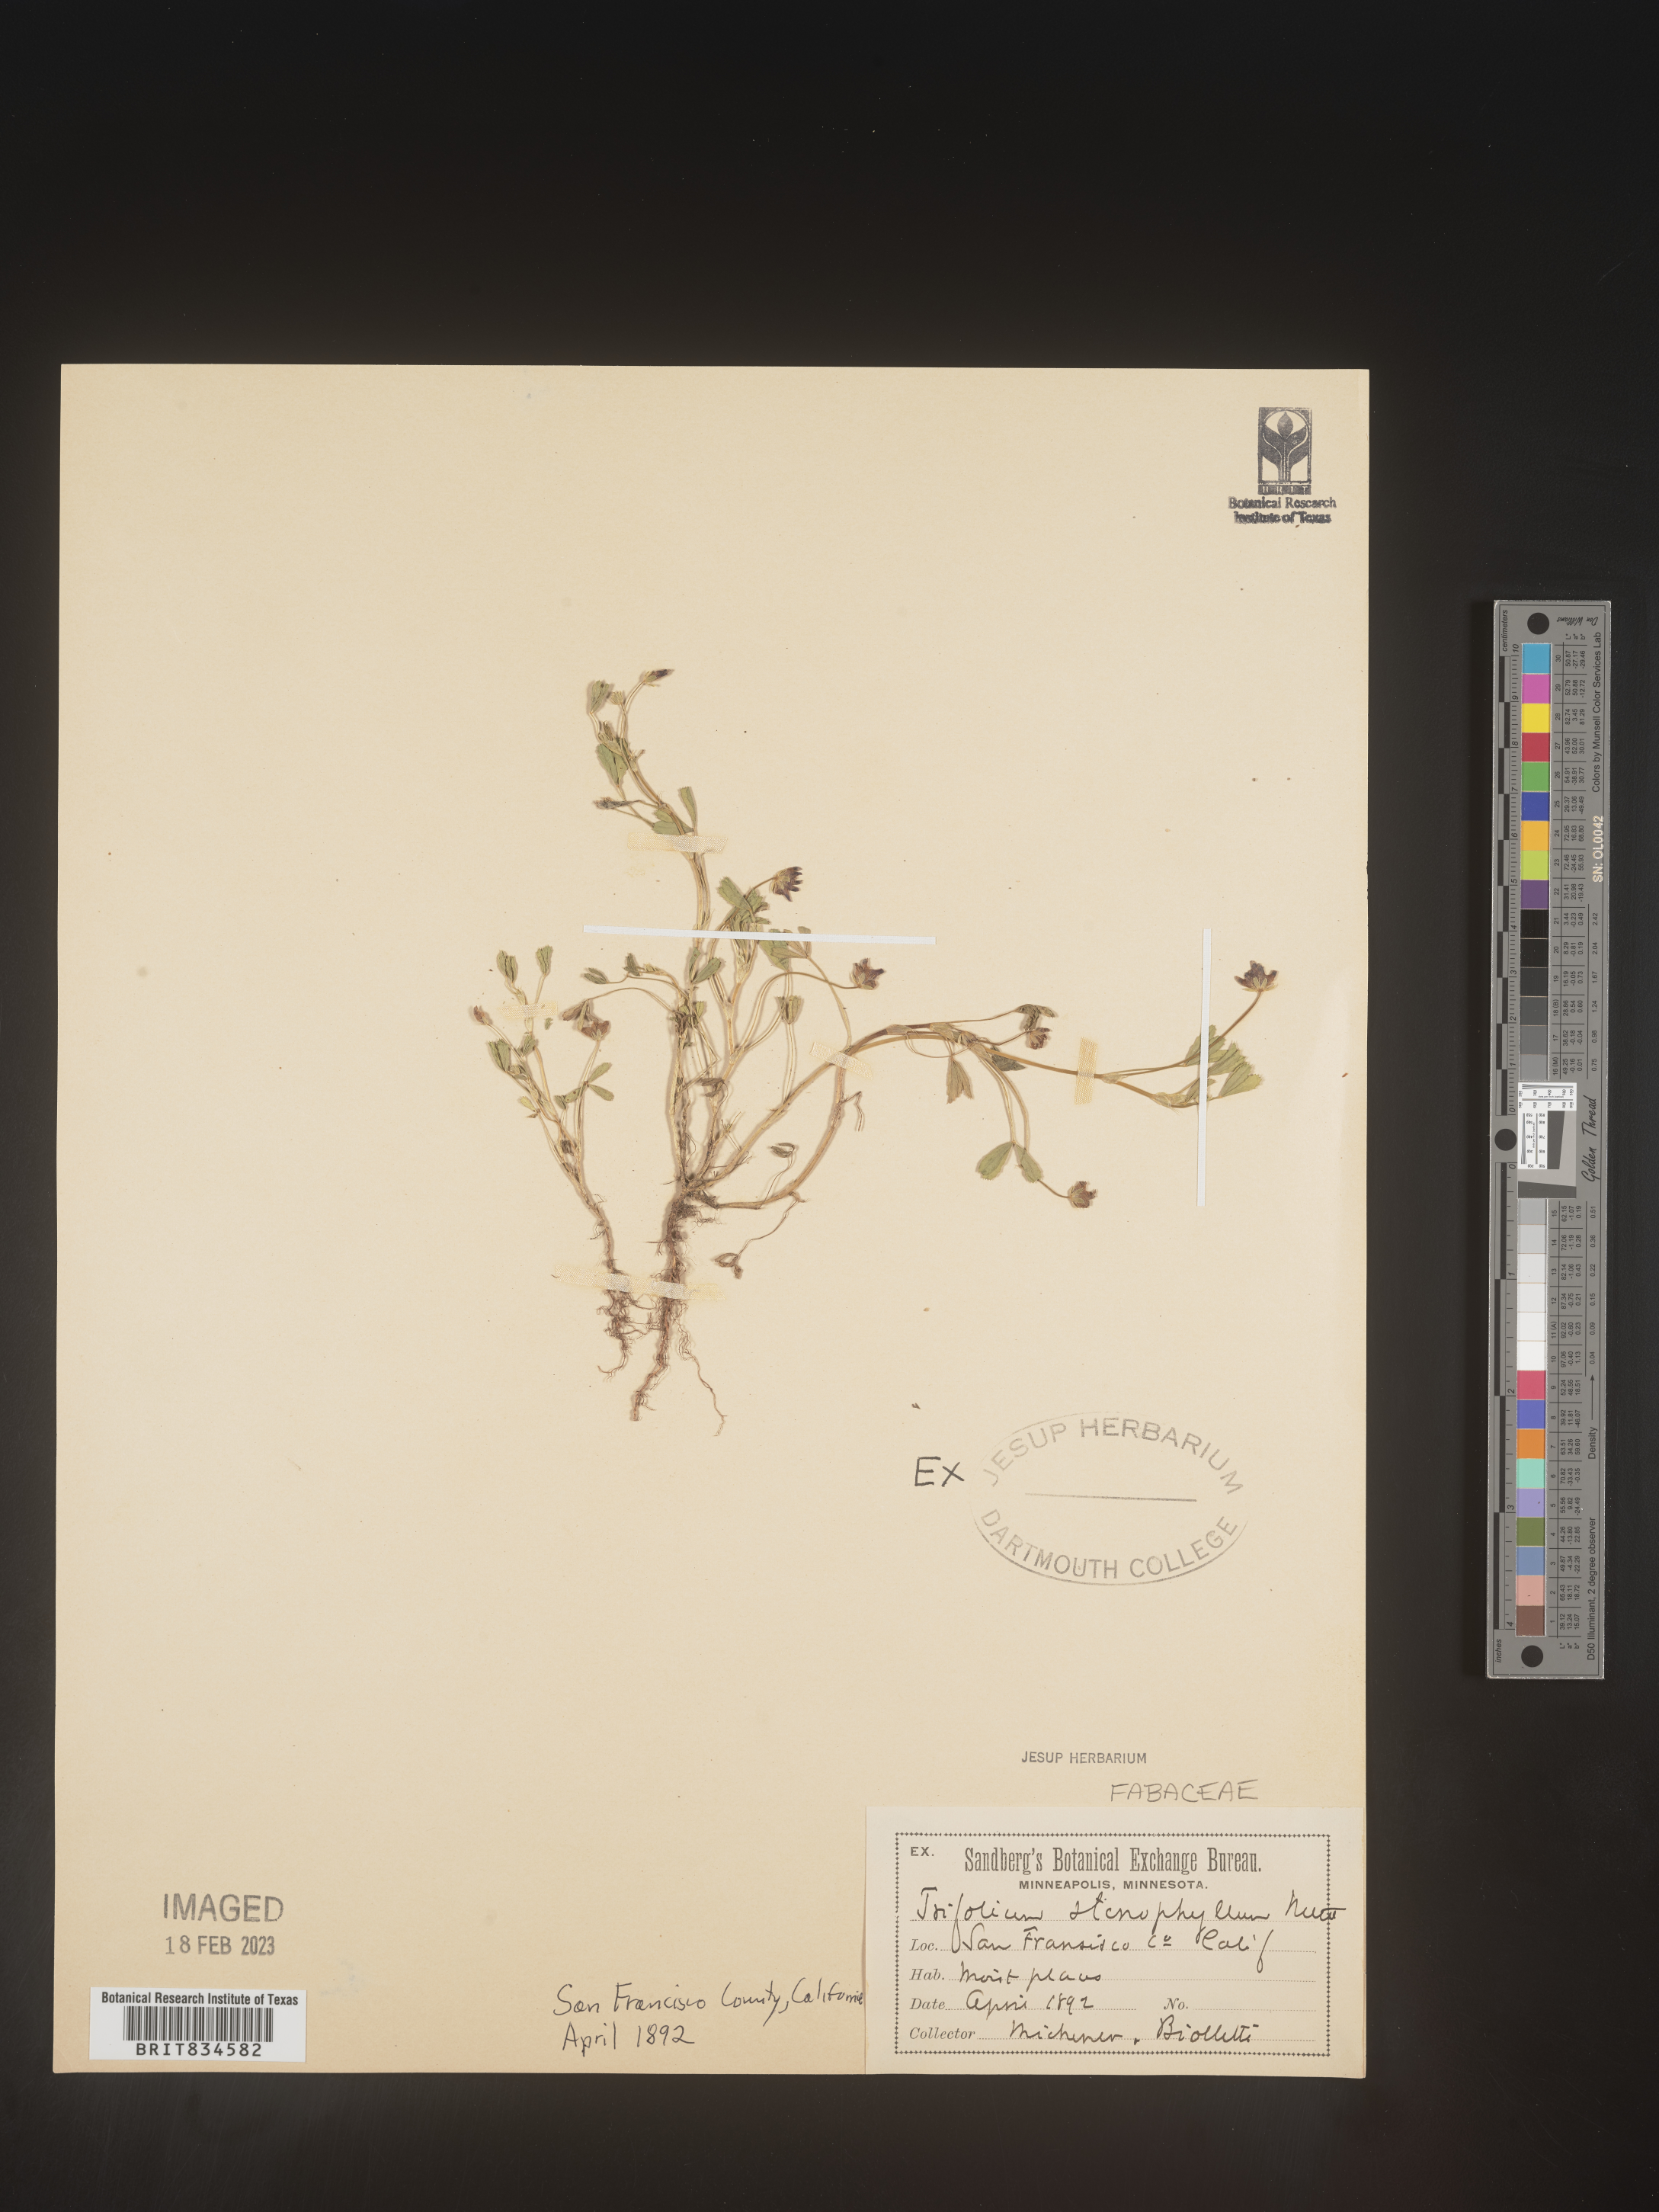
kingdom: Plantae
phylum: Tracheophyta
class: Magnoliopsida
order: Fabales
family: Fabaceae
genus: Trifolium
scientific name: Trifolium
